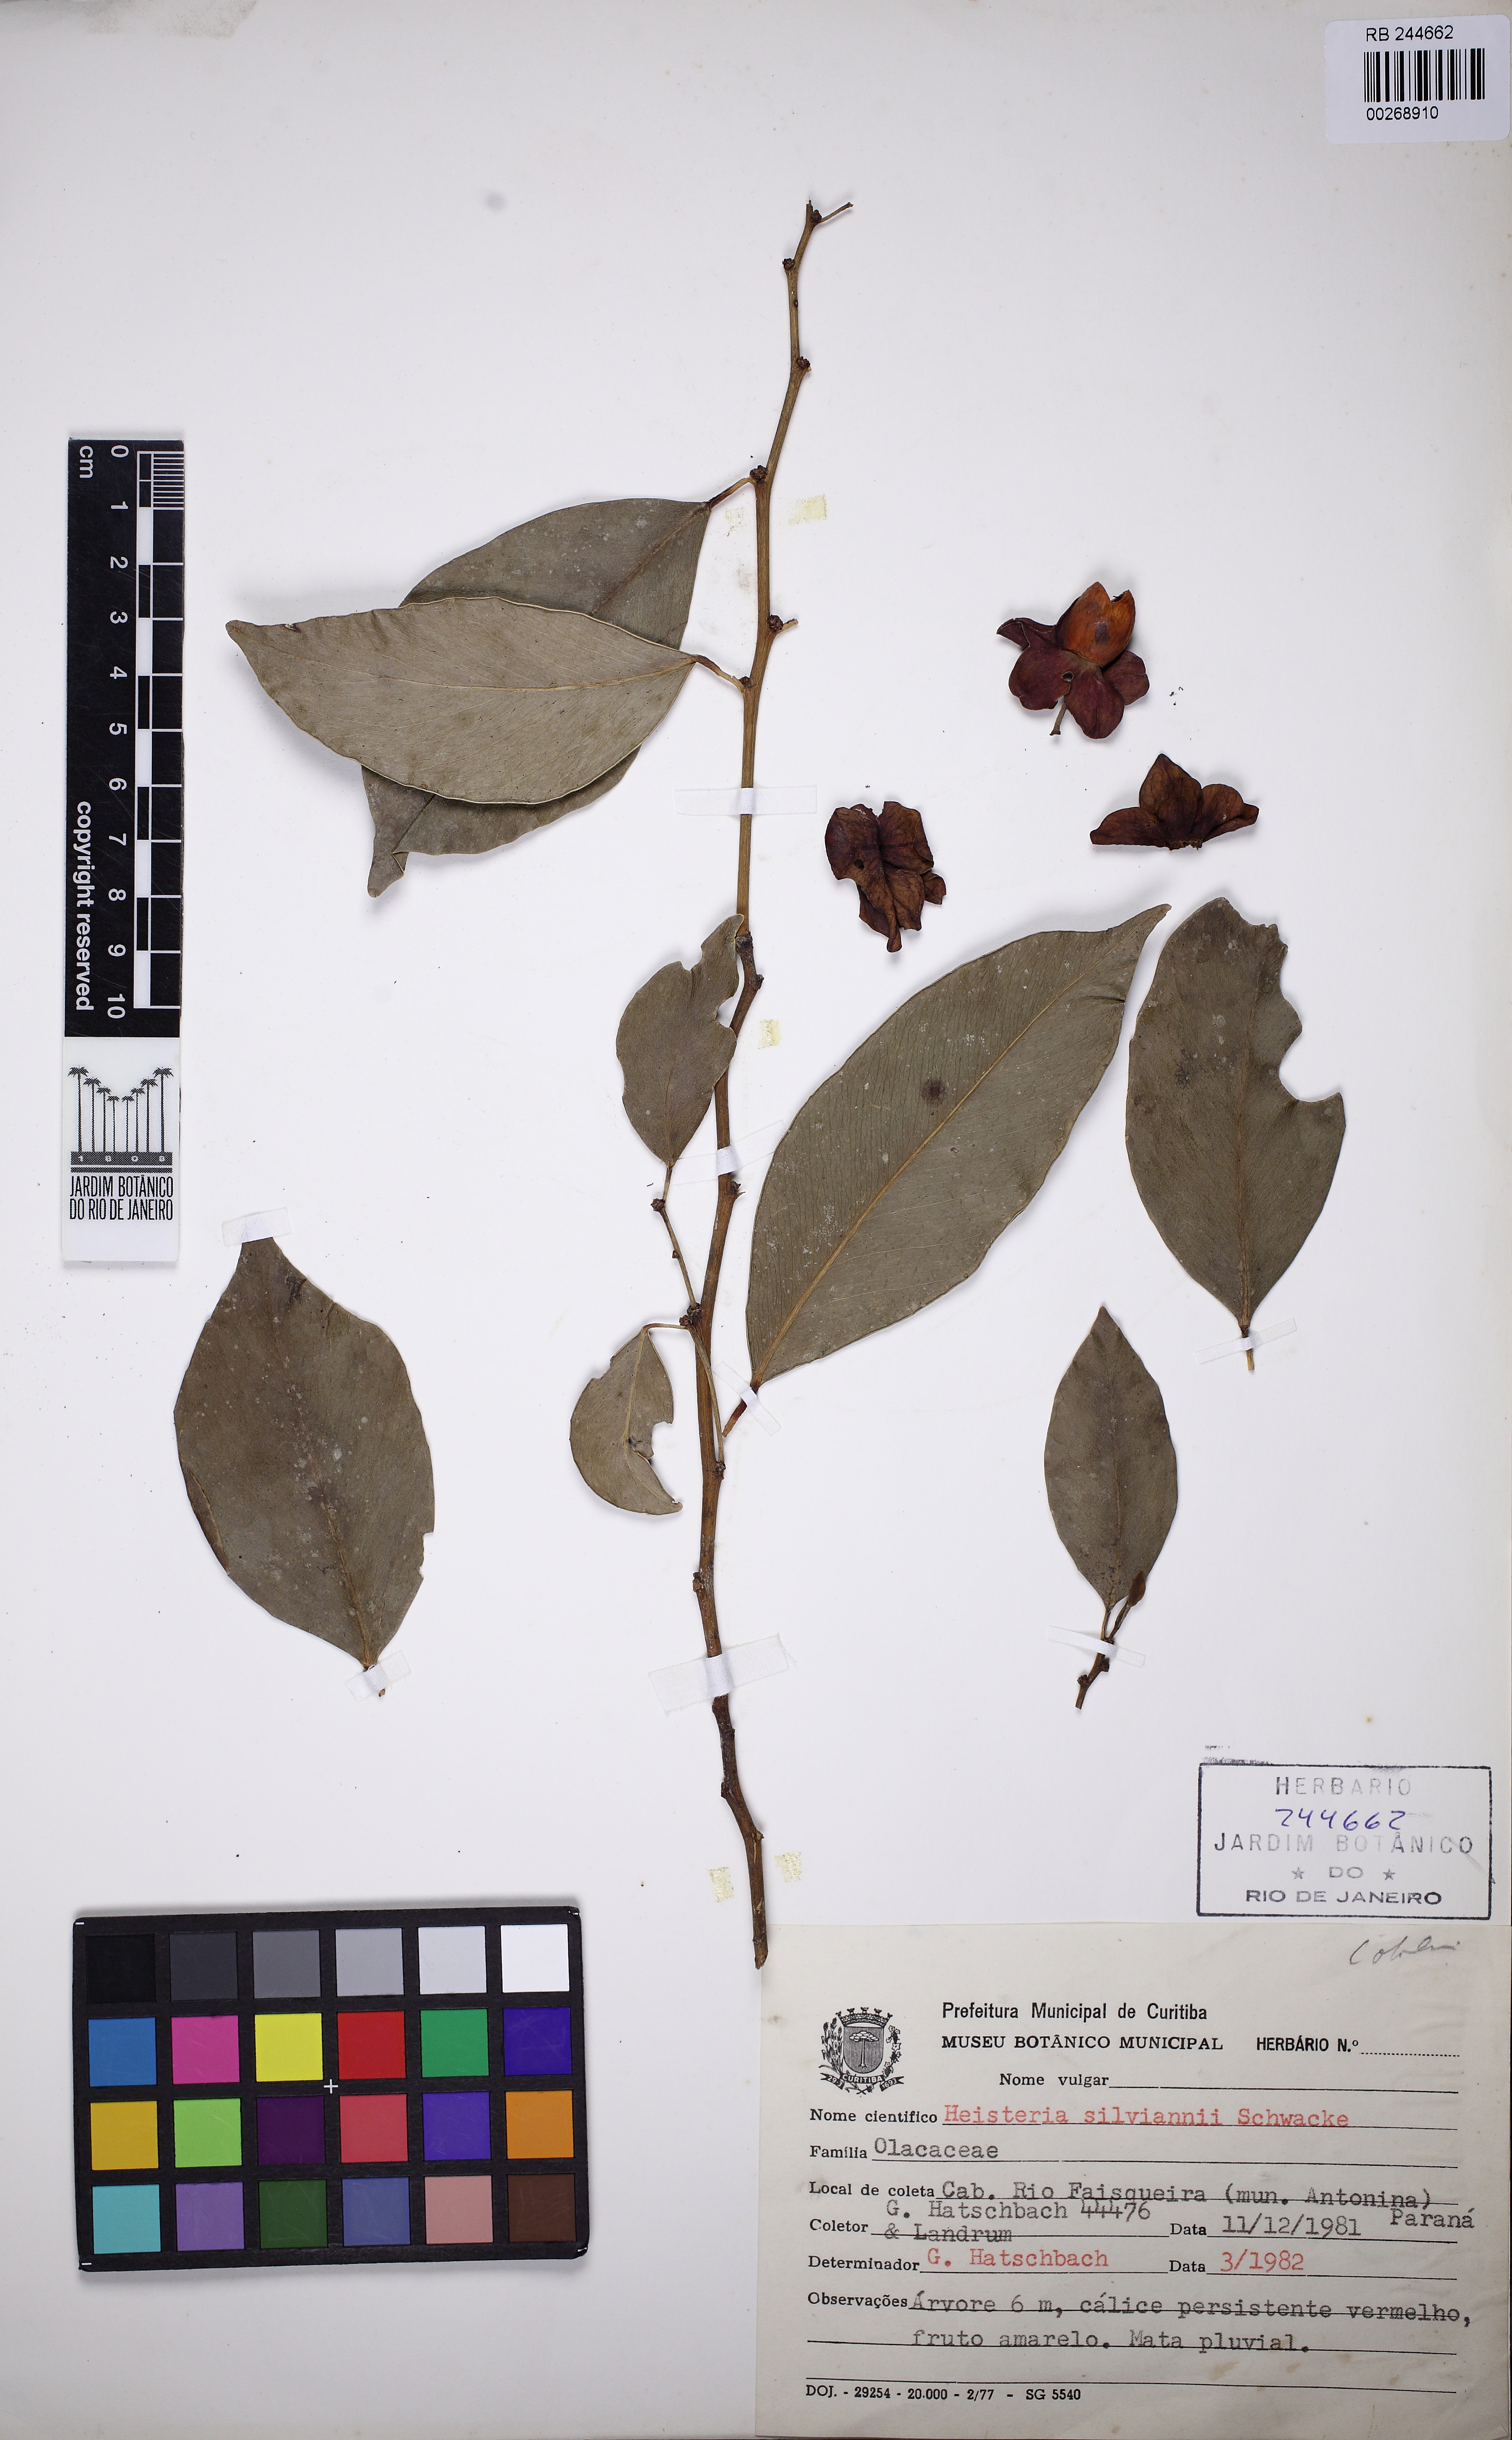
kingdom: Plantae
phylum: Tracheophyta
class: Magnoliopsida
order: Santalales
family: Erythropalaceae
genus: Heisteria
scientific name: Heisteria silvianii
